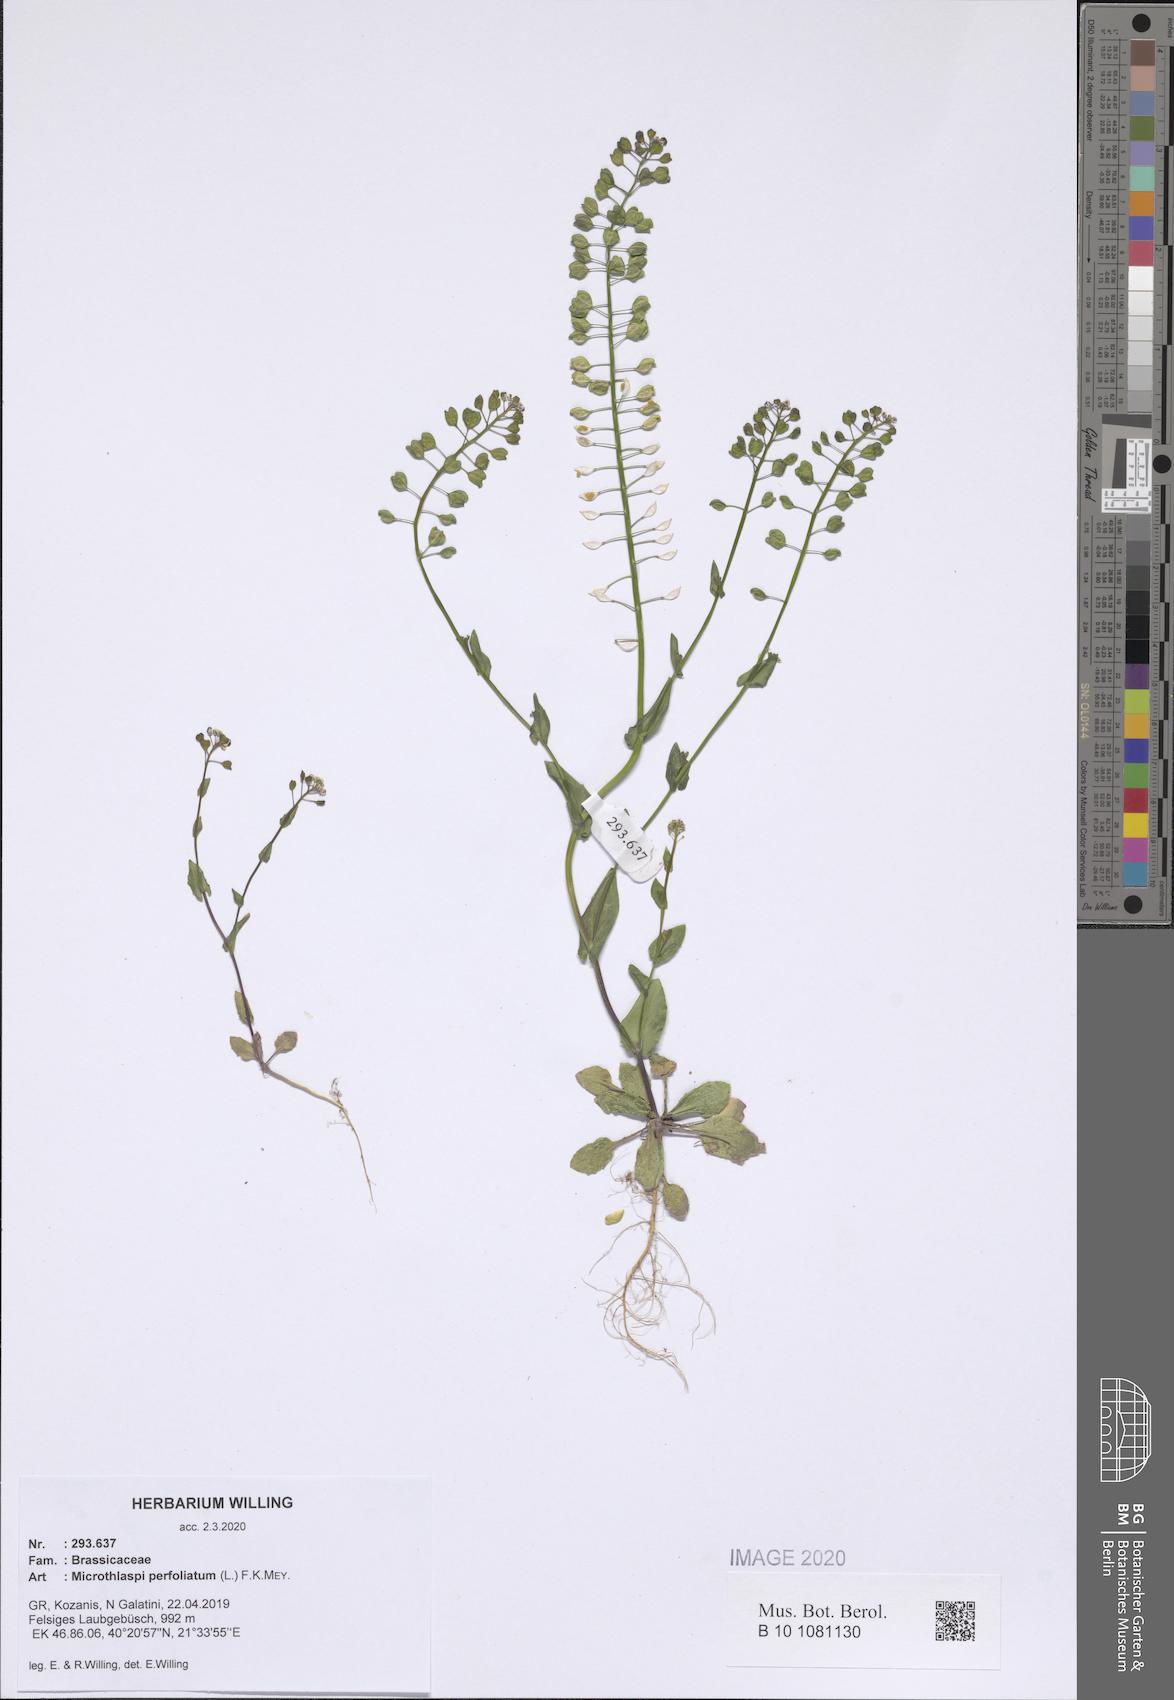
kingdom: Plantae
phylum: Tracheophyta
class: Magnoliopsida
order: Brassicales
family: Brassicaceae
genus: Noccaea
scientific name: Noccaea perfoliata
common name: Perfoliate pennycress
